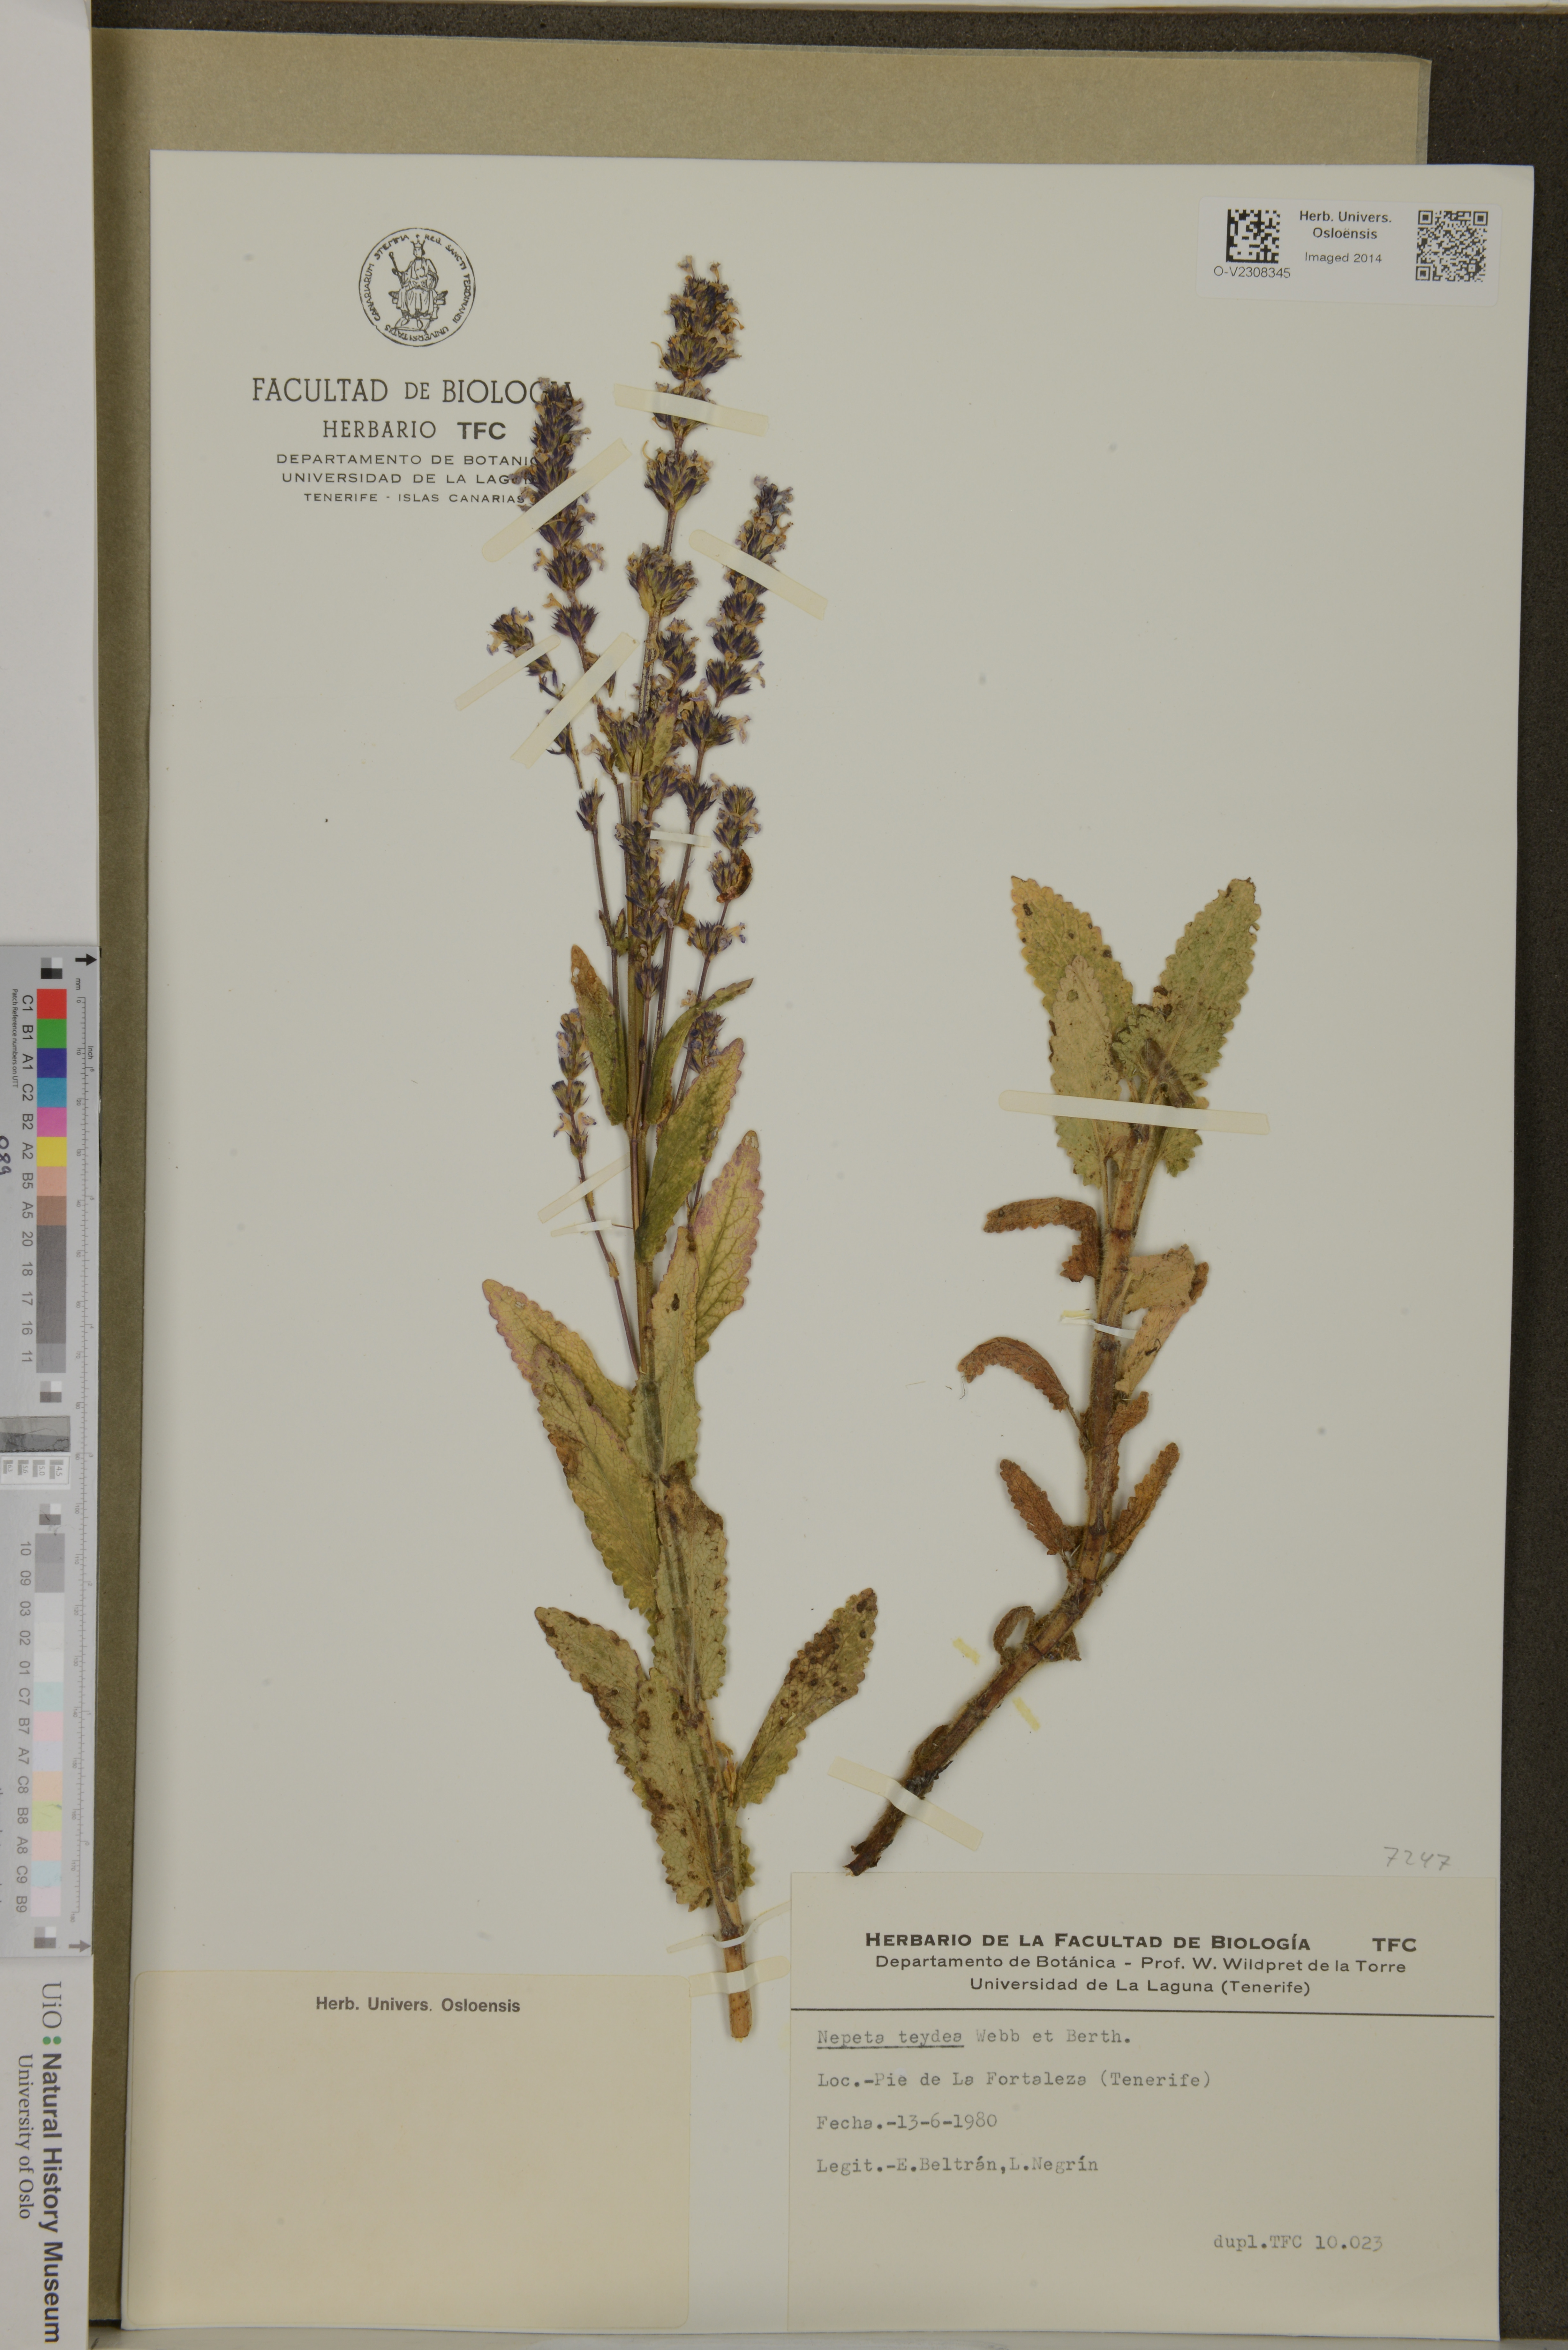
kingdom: Plantae
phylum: Tracheophyta
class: Magnoliopsida
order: Lamiales
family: Lamiaceae
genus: Nepeta
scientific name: Nepeta teydea
